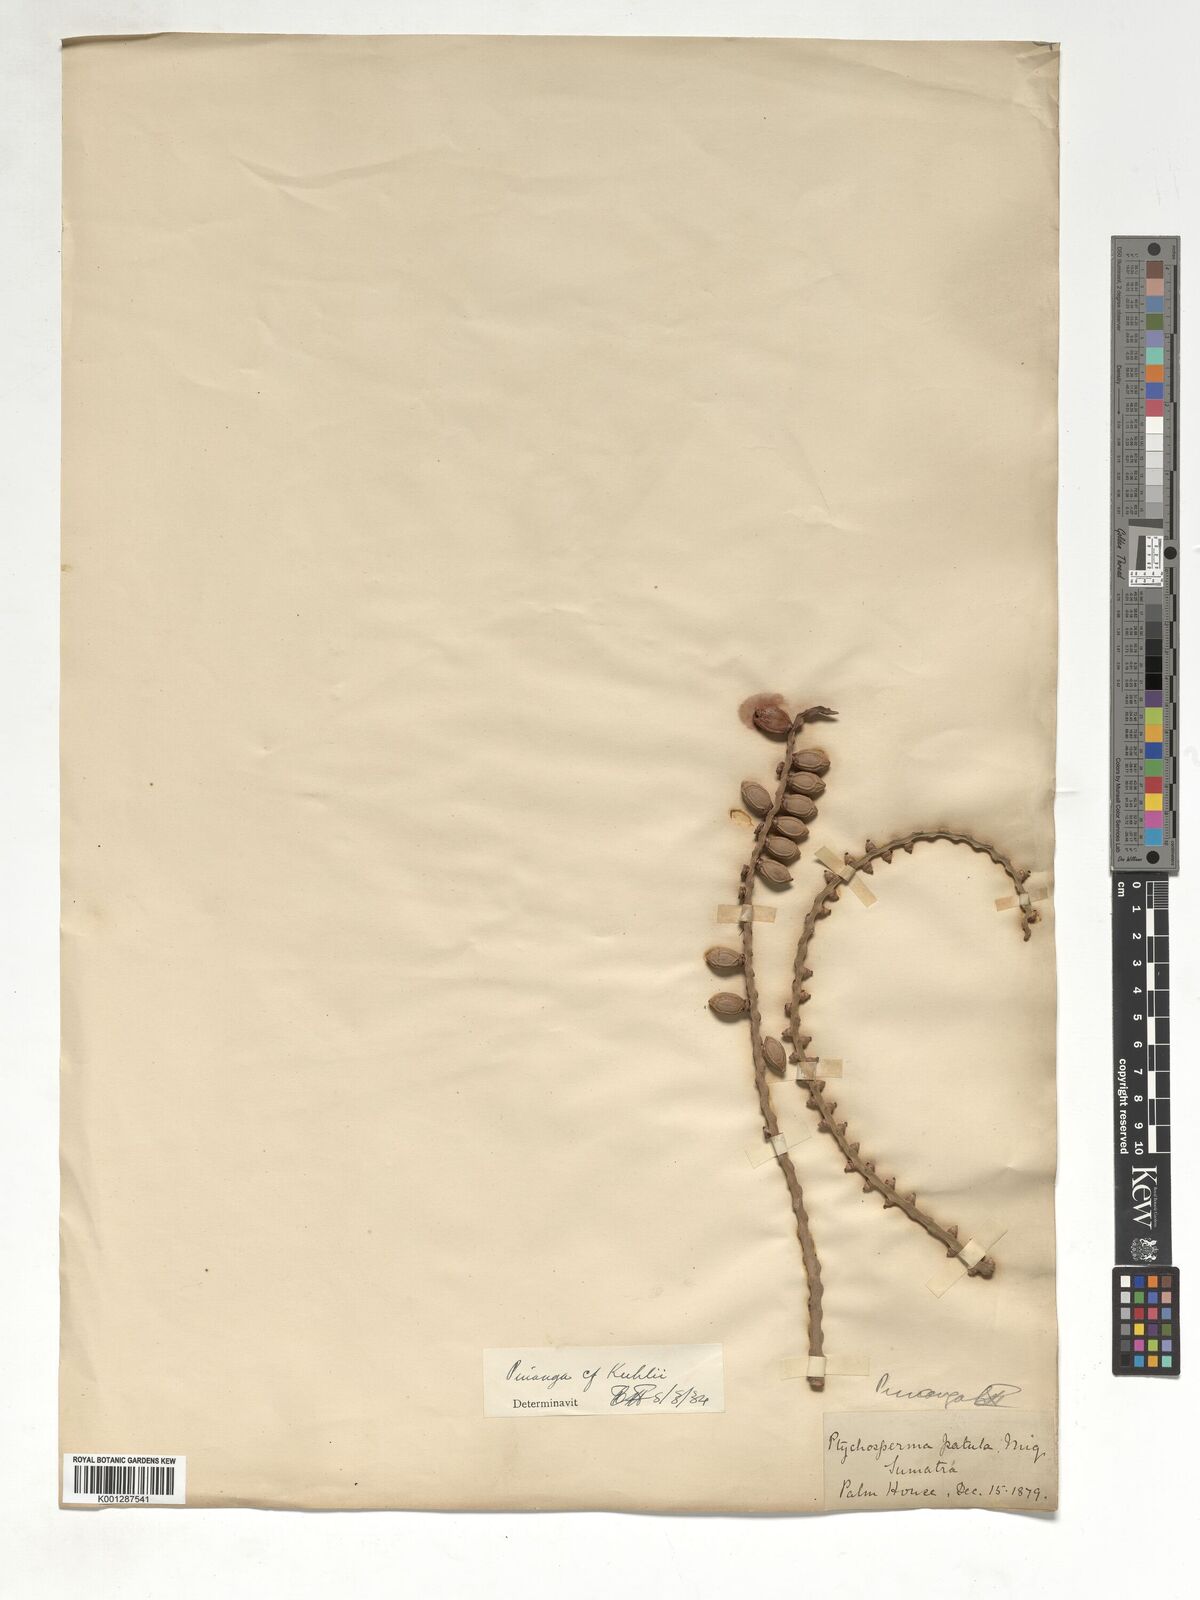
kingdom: Plantae
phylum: Tracheophyta
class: Liliopsida
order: Arecales
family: Arecaceae
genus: Pinanga
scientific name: Pinanga coronata
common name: Ivory cane palm
